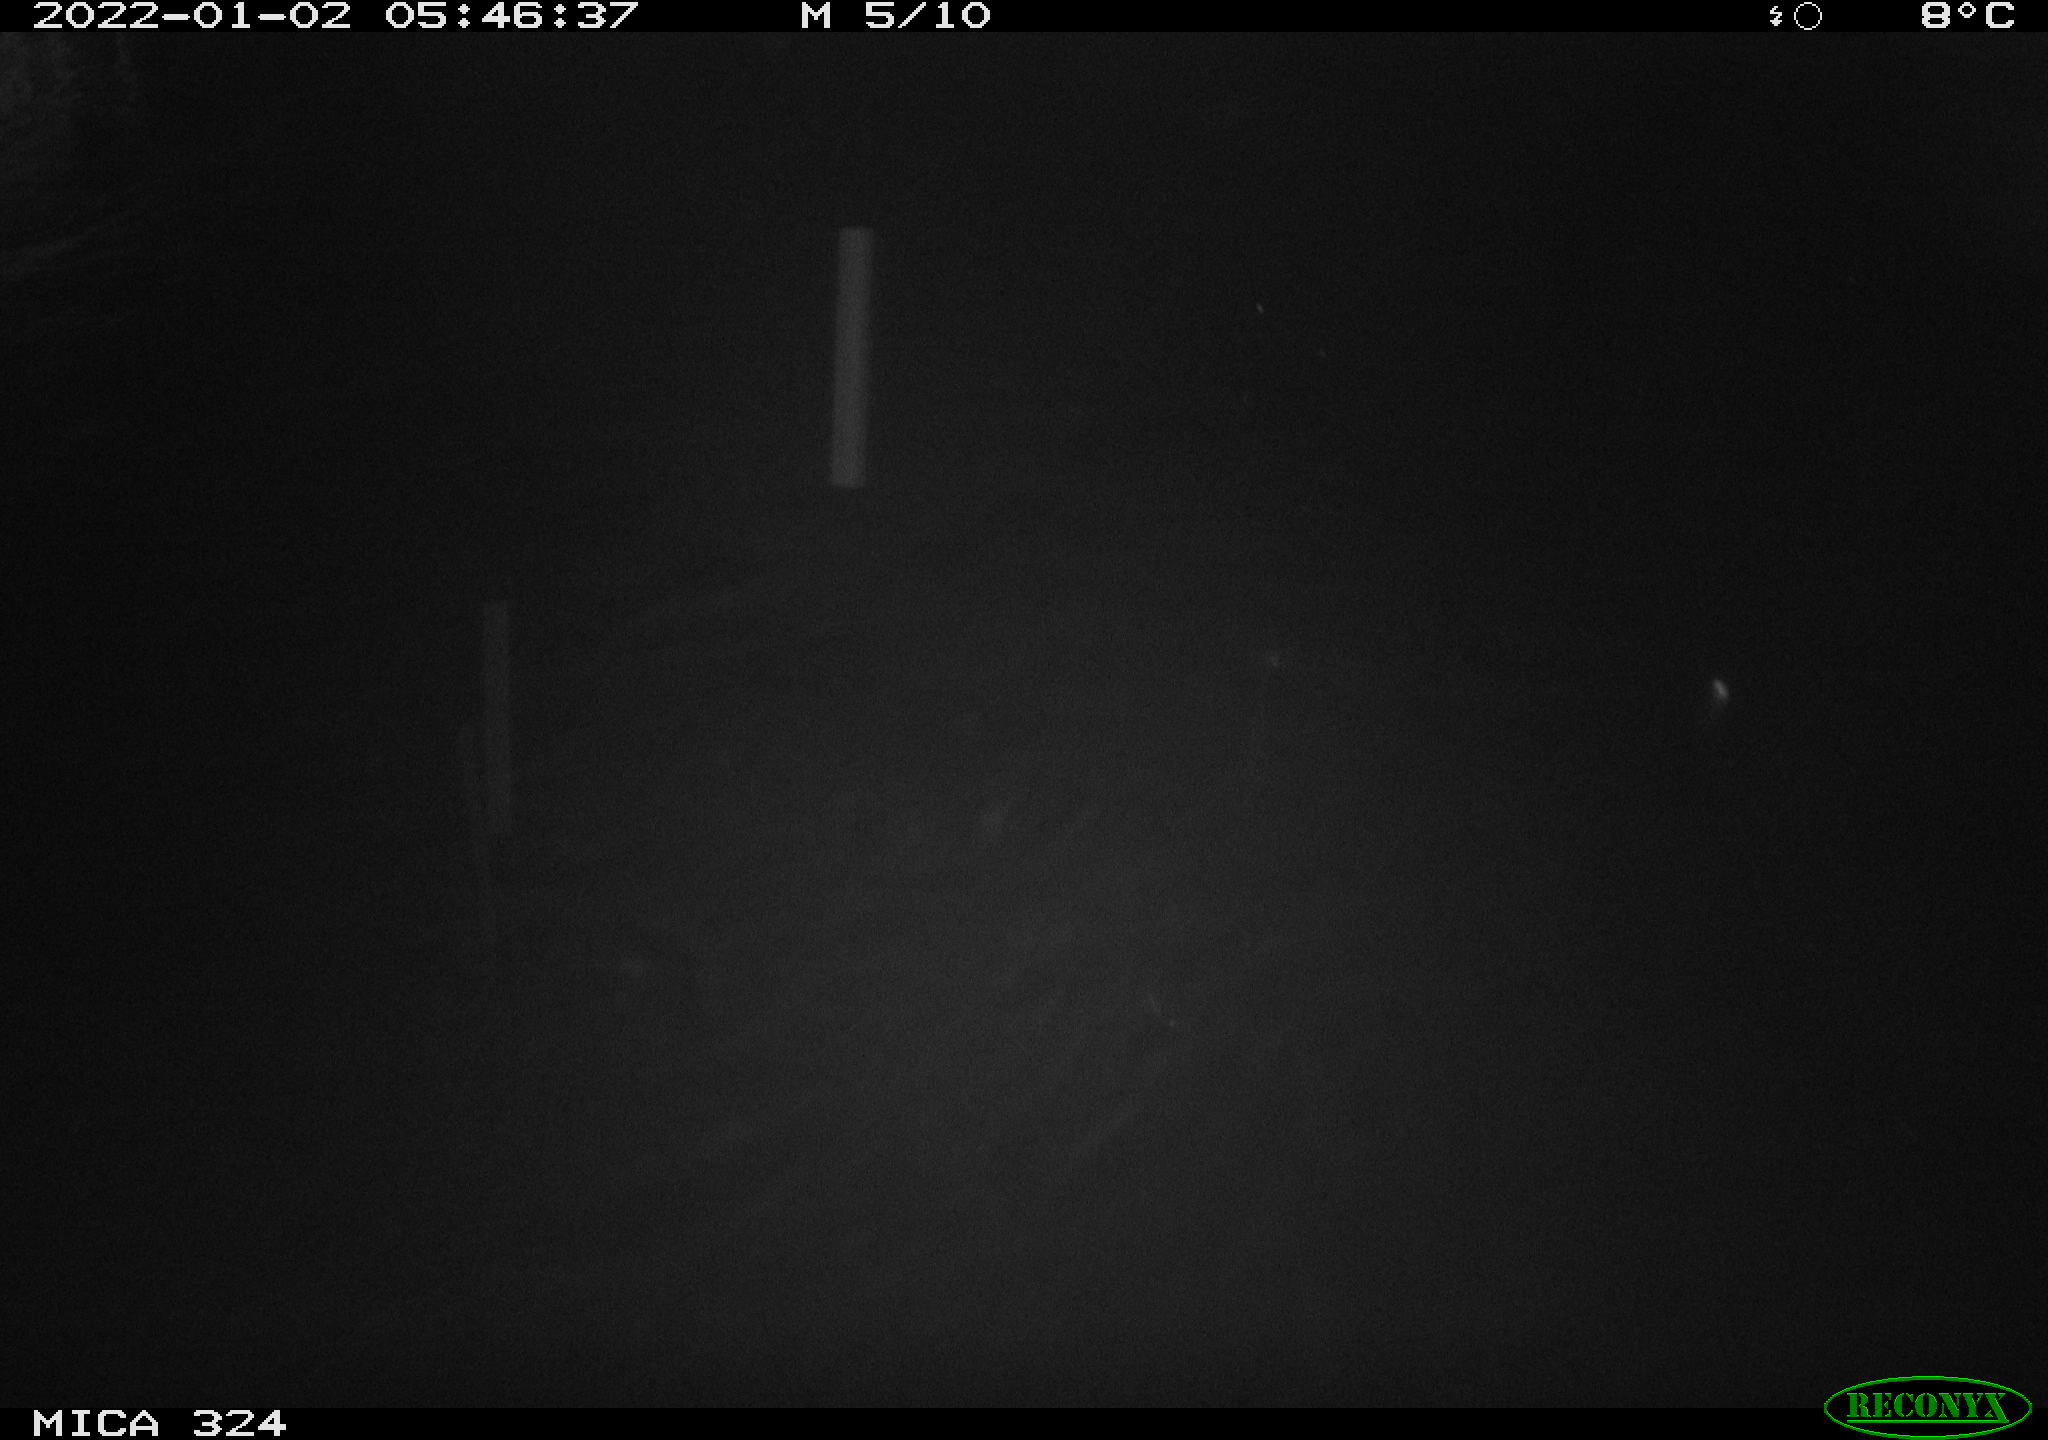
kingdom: Animalia
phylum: Chordata
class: Mammalia
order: Rodentia
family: Cricetidae
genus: Ondatra
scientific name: Ondatra zibethicus
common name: Muskrat
